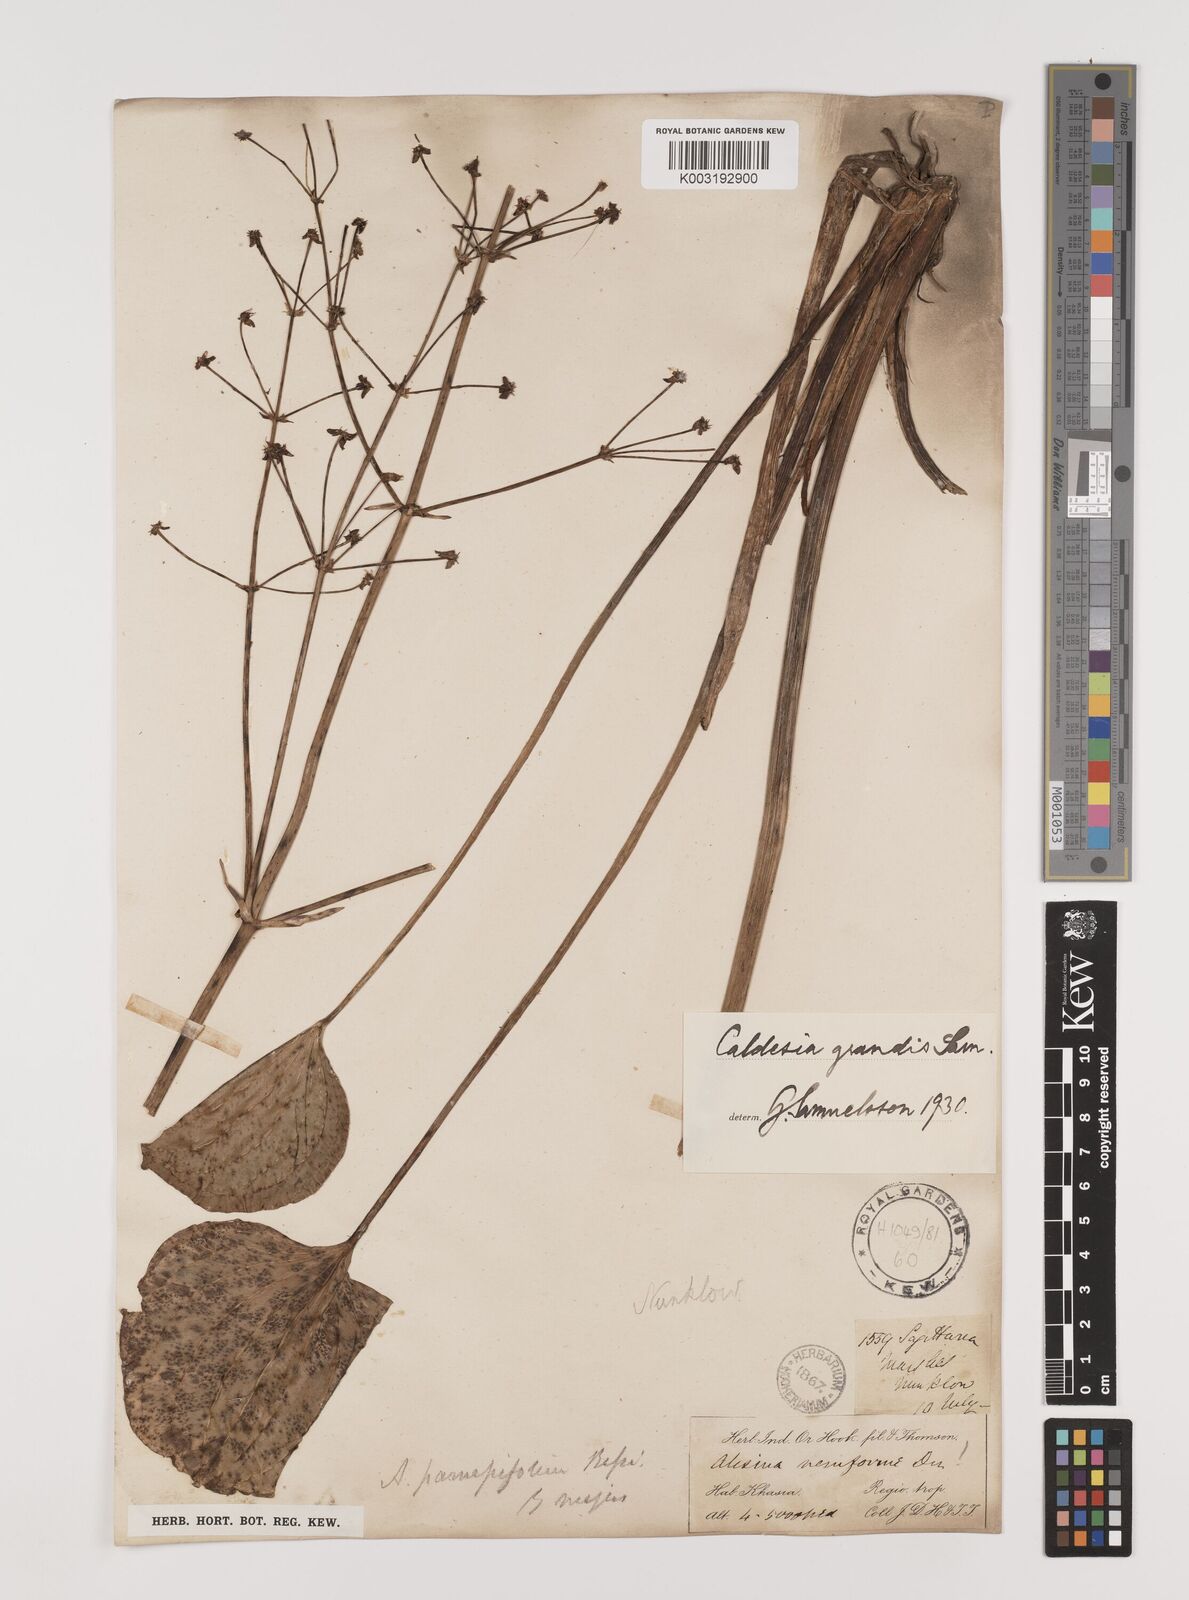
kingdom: Plantae
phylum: Tracheophyta
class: Liliopsida
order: Alismatales
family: Alismataceae
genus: Caldesia
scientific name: Caldesia grandis
